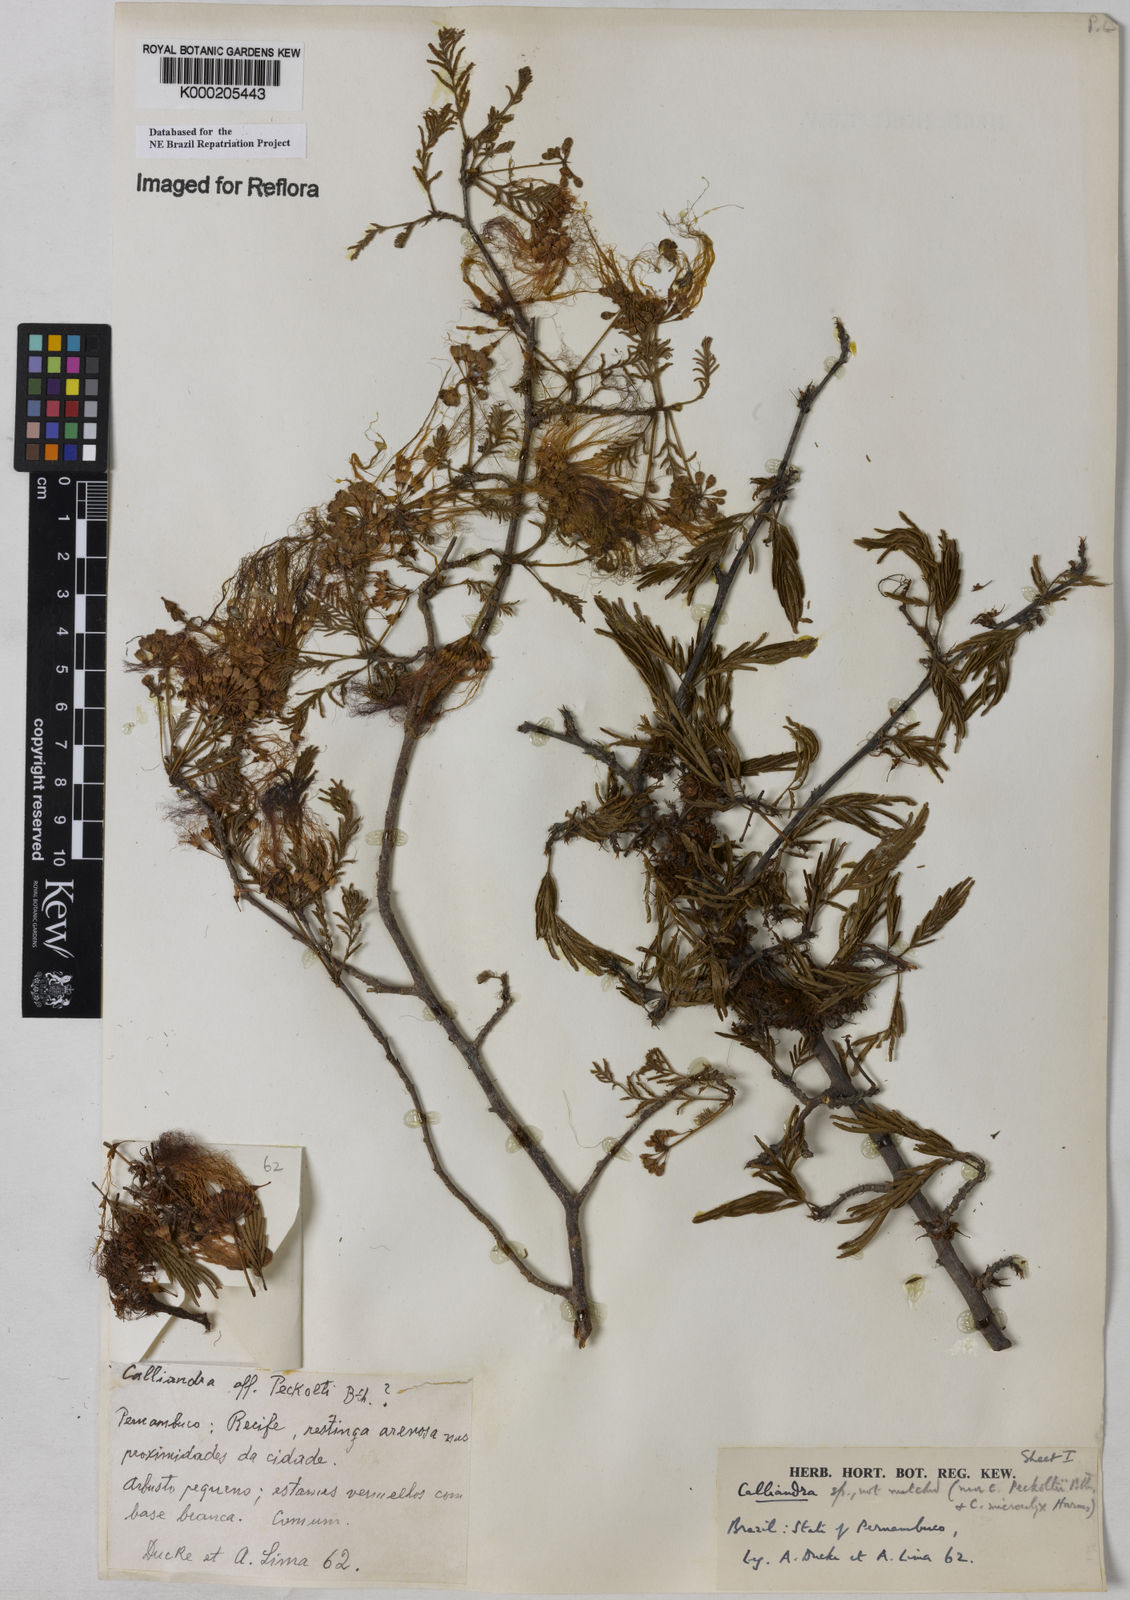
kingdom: Plantae
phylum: Tracheophyta
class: Magnoliopsida
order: Fabales
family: Fabaceae
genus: Calliandra
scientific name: Calliandra parvifolia
